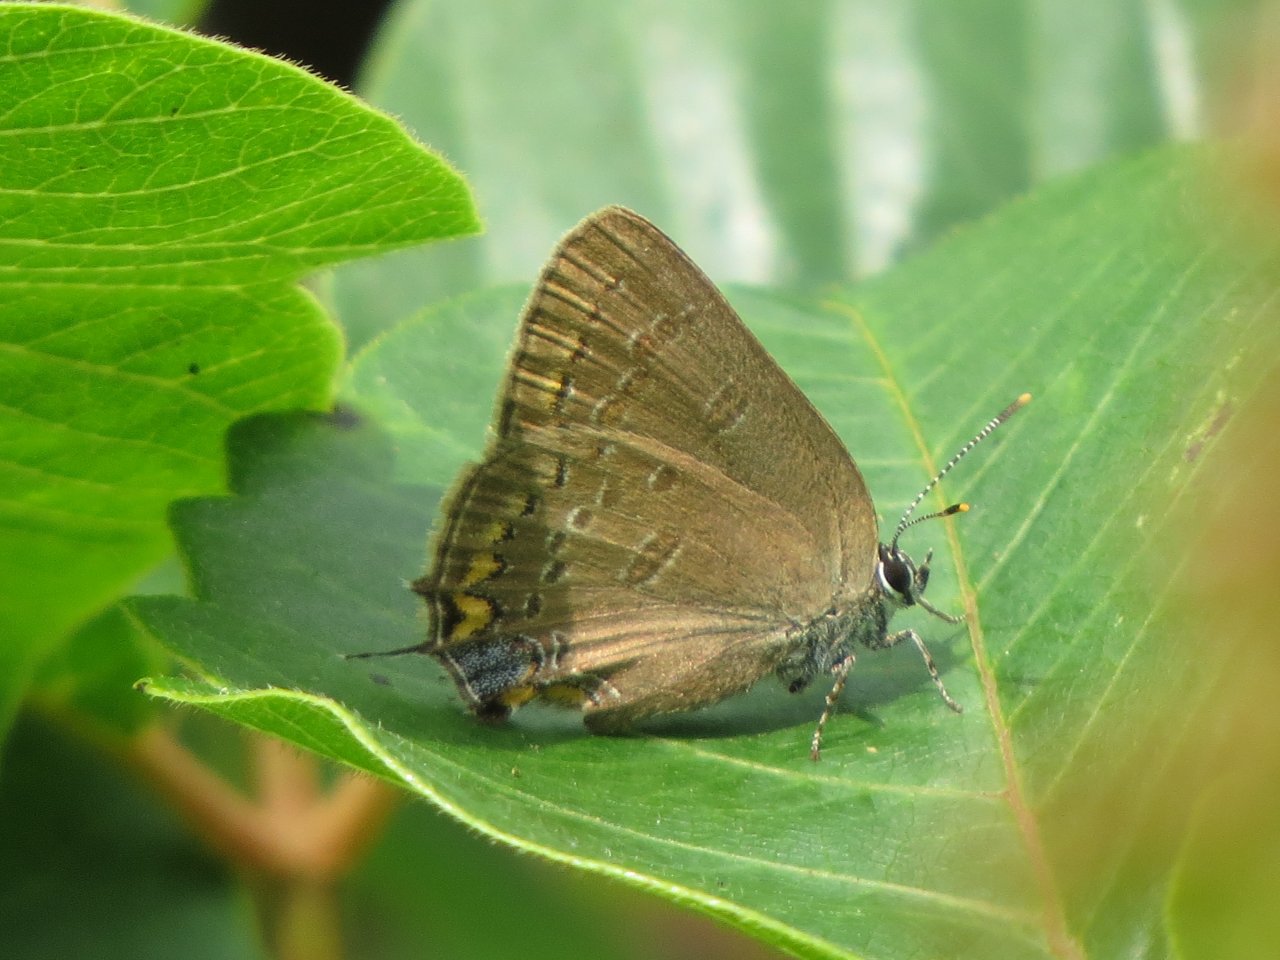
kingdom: Animalia
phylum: Arthropoda
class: Insecta
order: Lepidoptera
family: Lycaenidae
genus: Satyrium
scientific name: Satyrium edwardsii
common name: Edwards' Hairstreak
